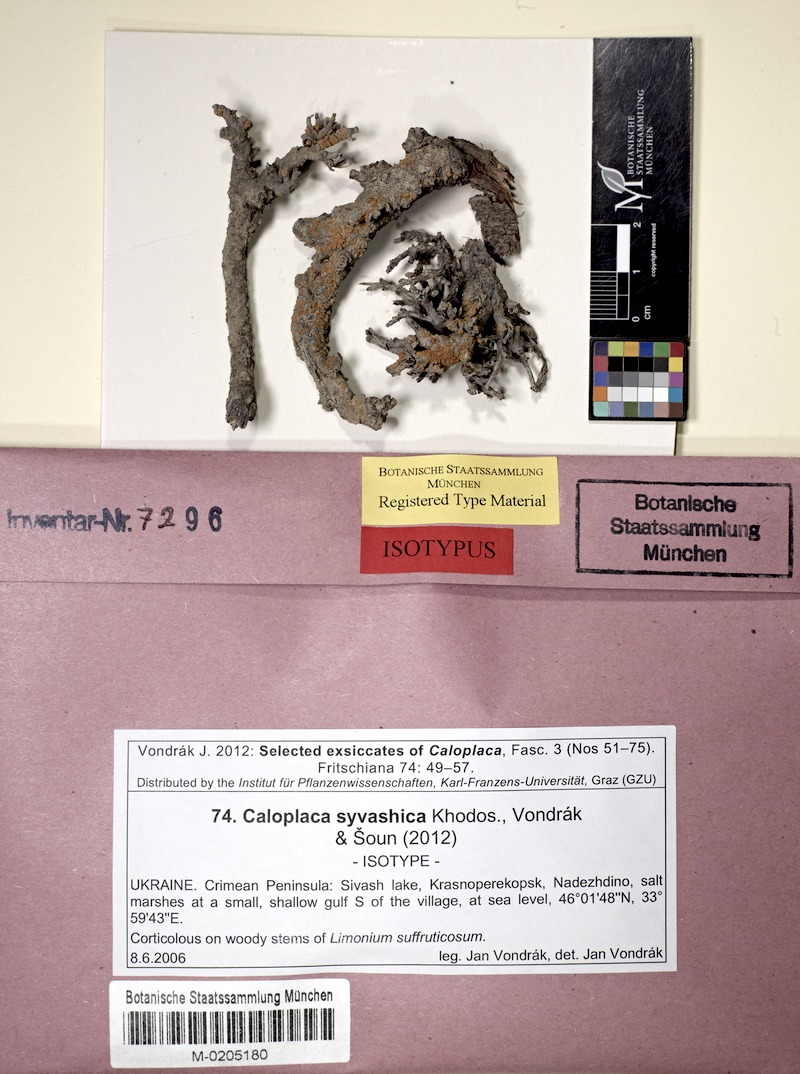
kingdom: Fungi
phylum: Ascomycota
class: Lecanoromycetes
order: Teloschistales
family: Teloschistaceae
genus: Rehmanniella
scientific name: Rehmanniella syvashica
